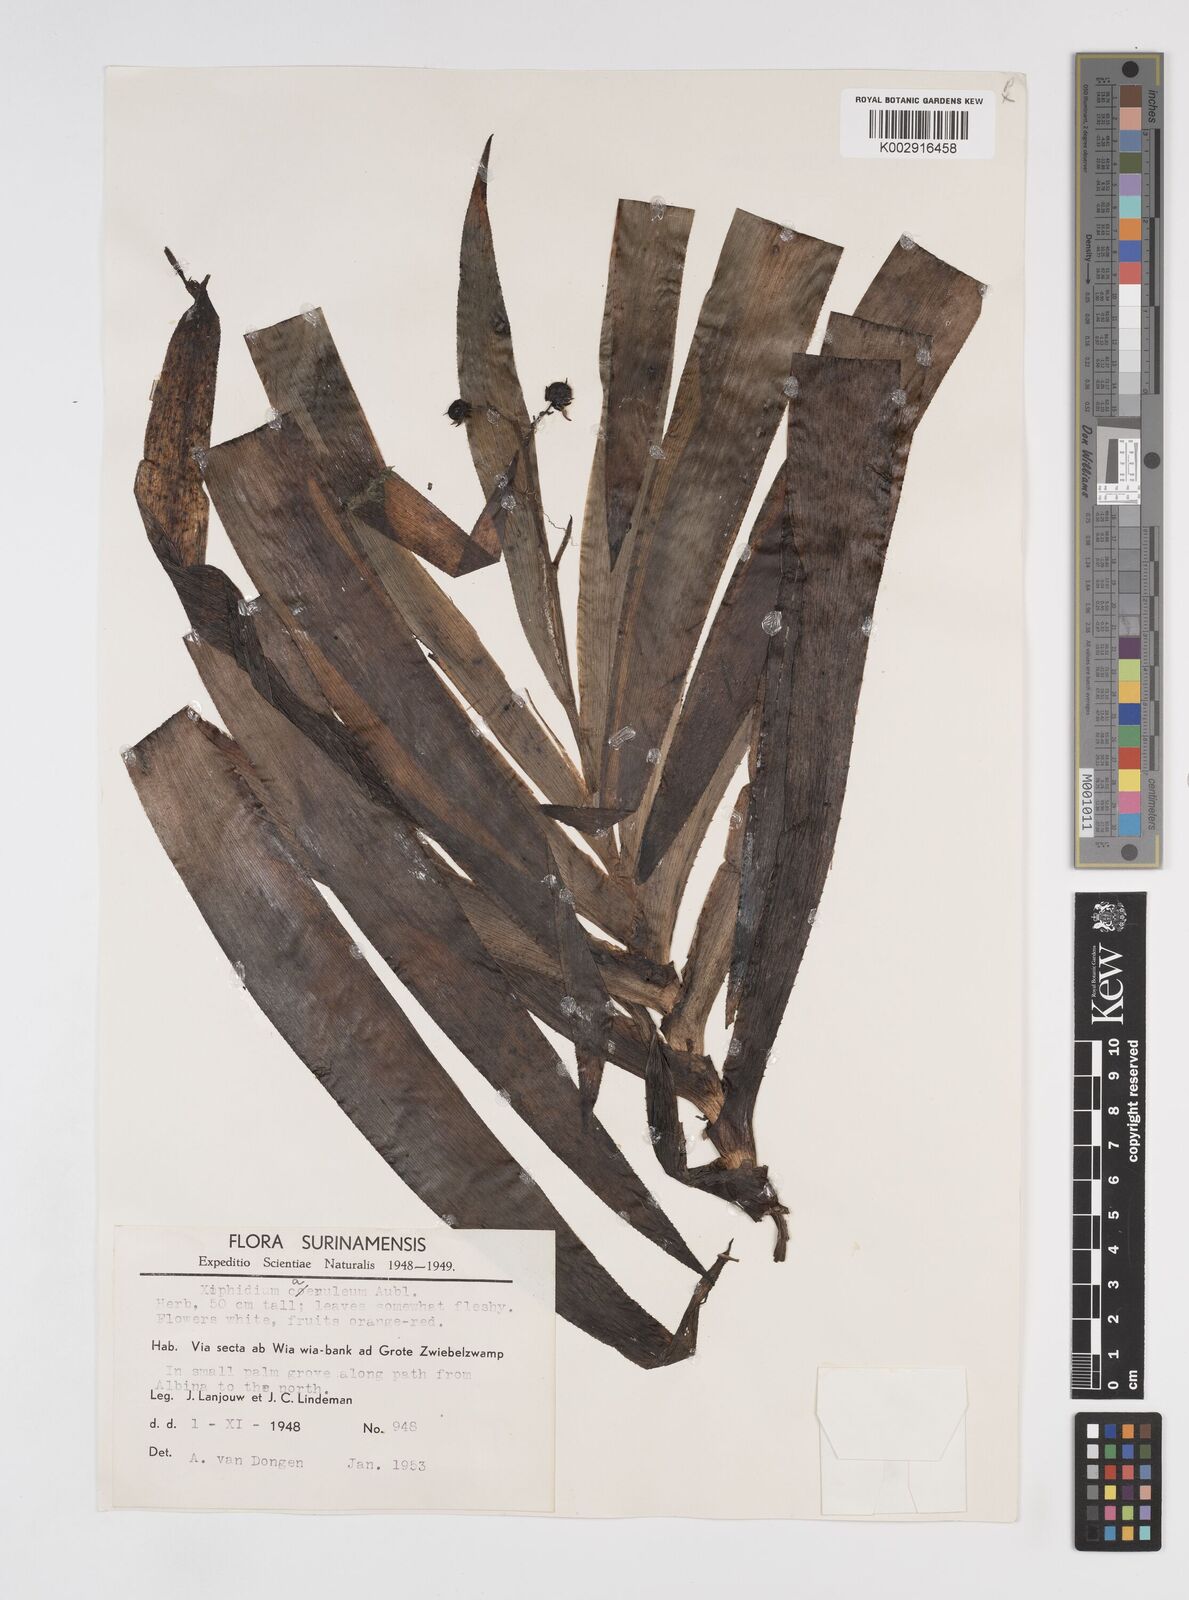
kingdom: Plantae
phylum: Tracheophyta
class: Liliopsida
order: Commelinales
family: Haemodoraceae
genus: Xiphidium
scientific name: Xiphidium caeruleum
